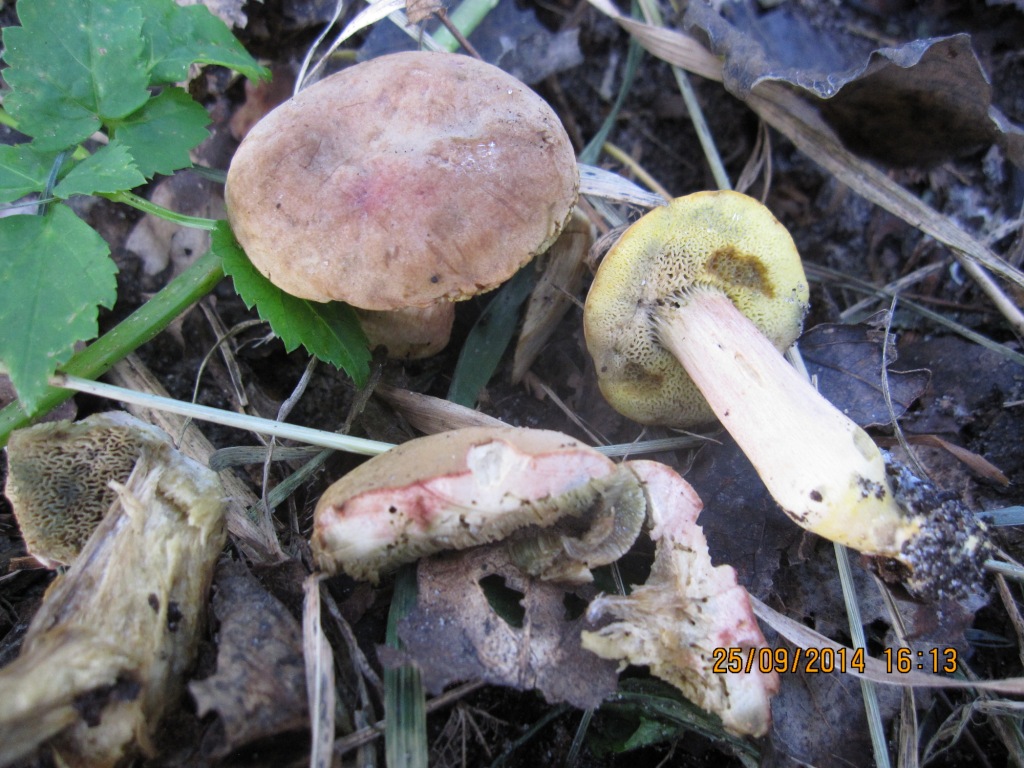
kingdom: Fungi
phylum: Basidiomycota
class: Agaricomycetes
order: Boletales
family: Boletaceae
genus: Hortiboletus
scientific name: Hortiboletus bubalinus
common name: aurora-rørhat
